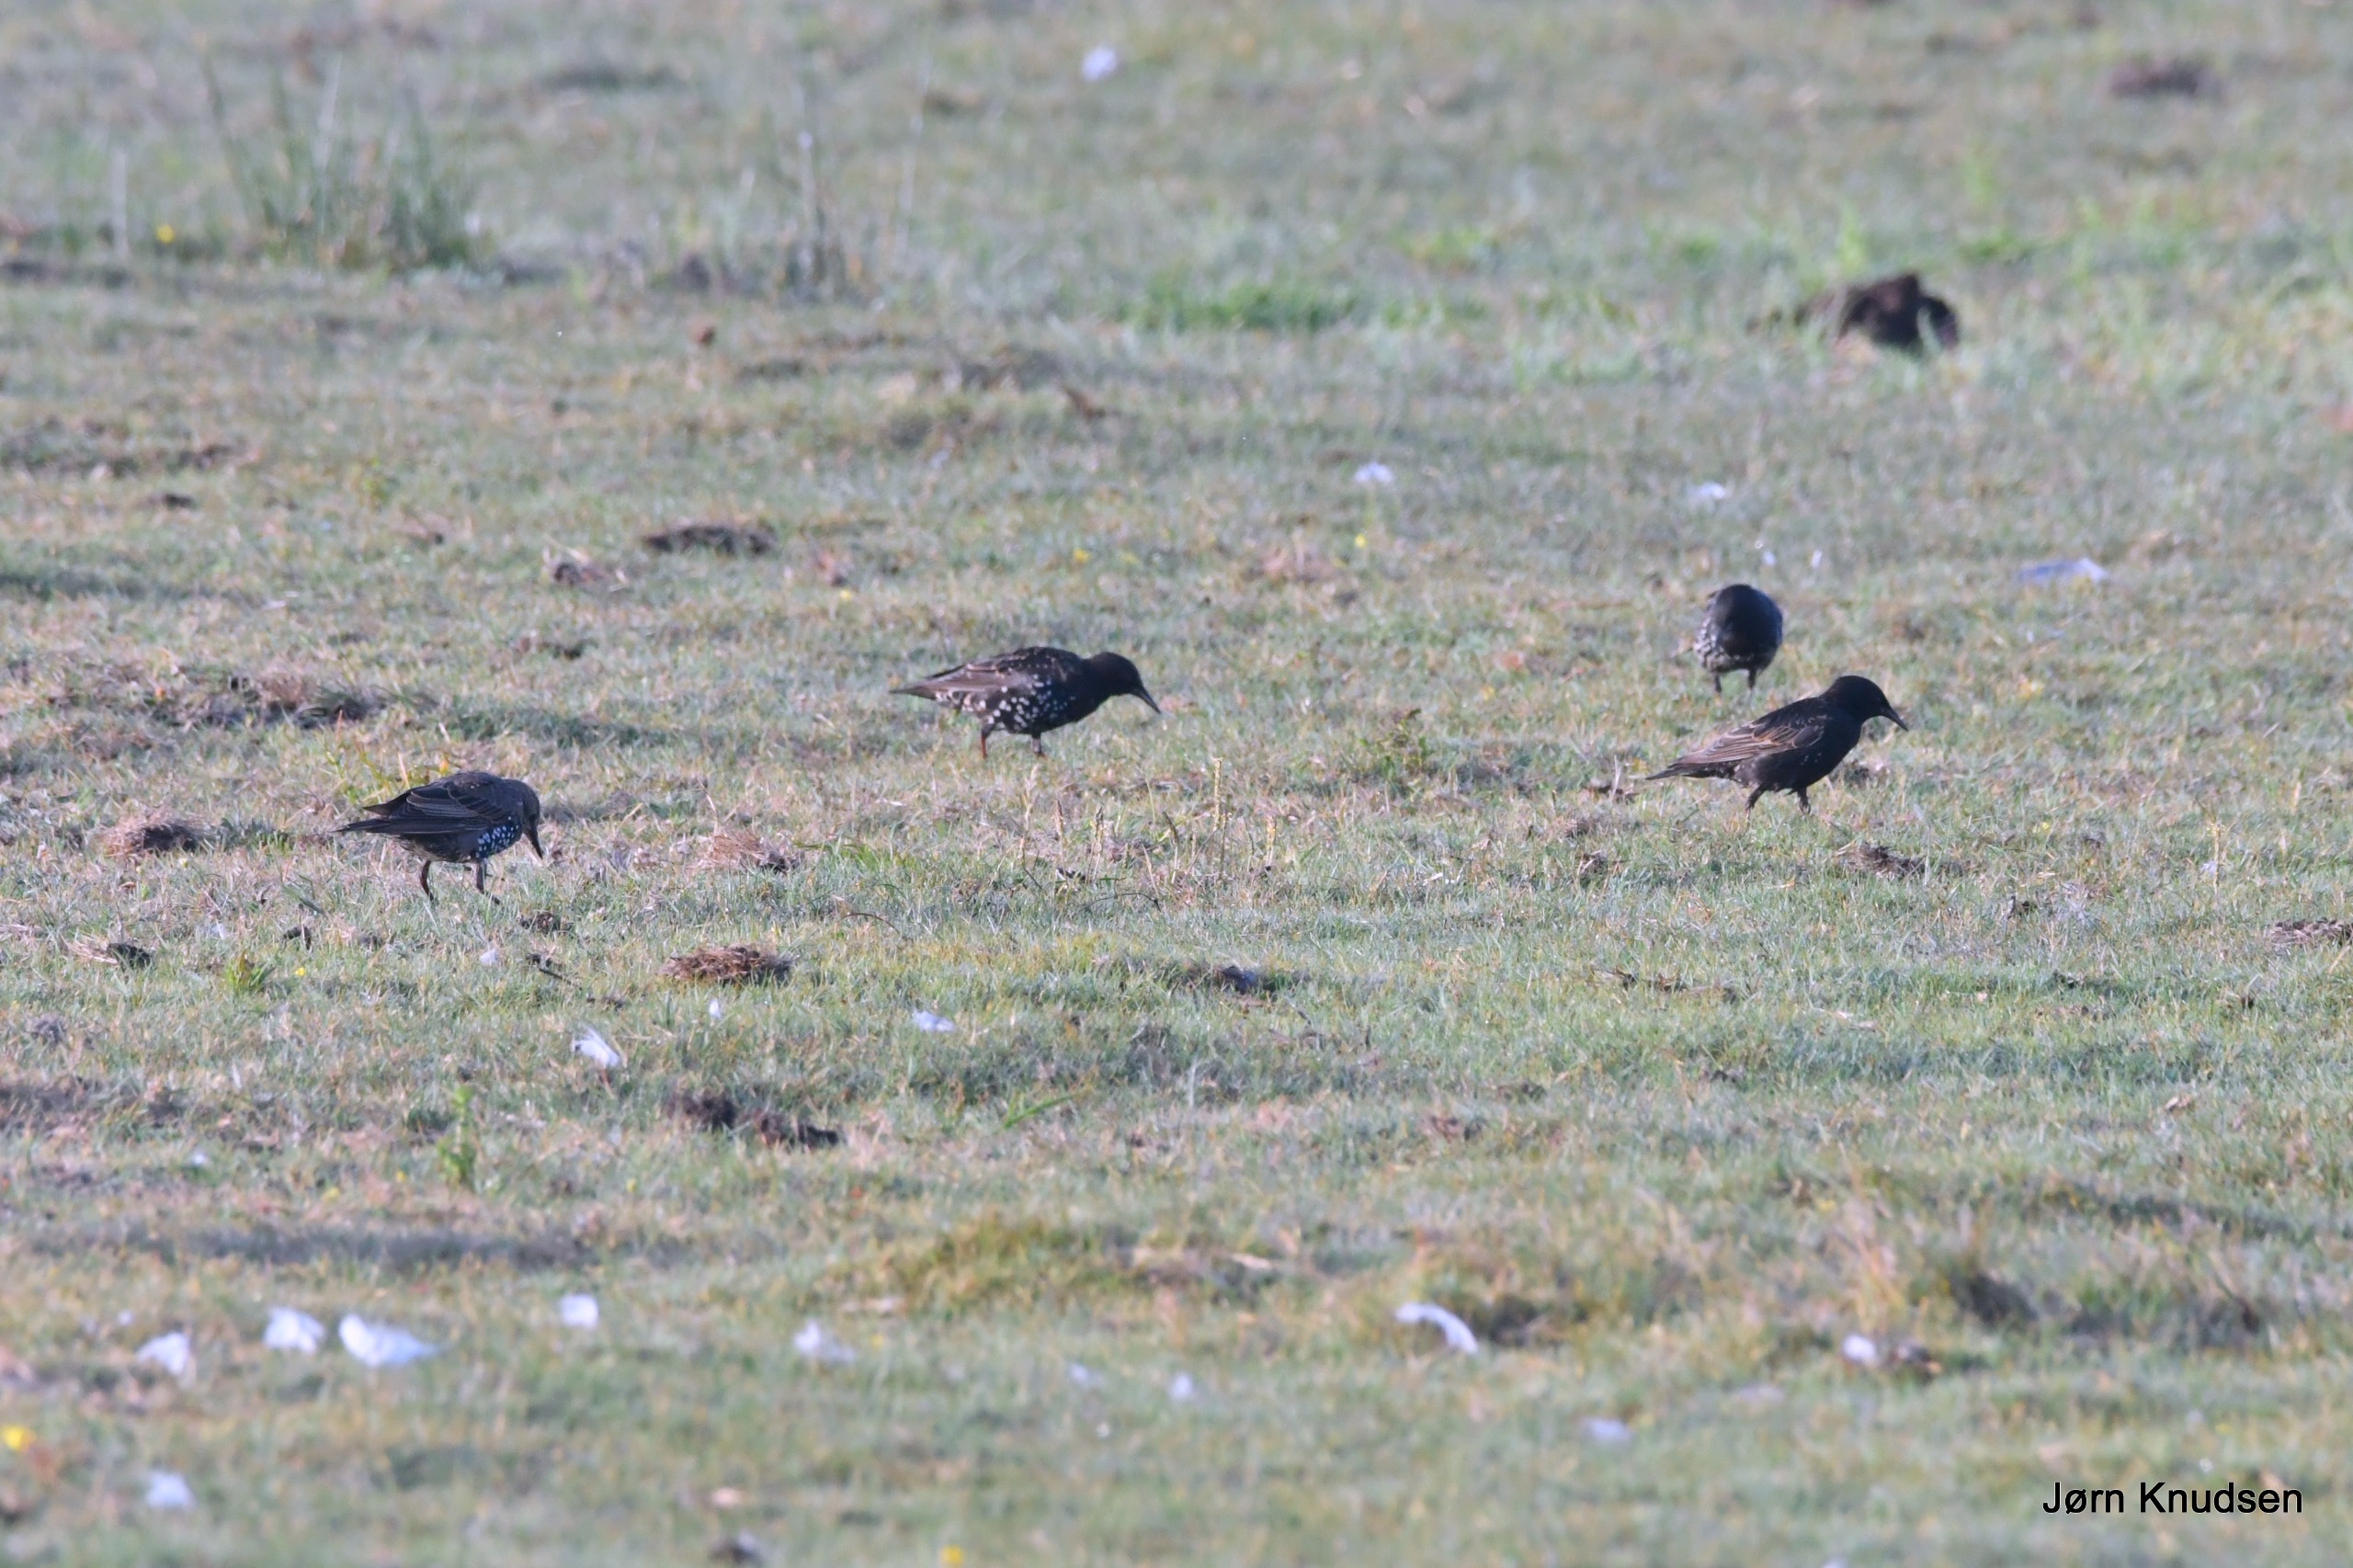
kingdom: Animalia
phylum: Chordata
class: Aves
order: Passeriformes
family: Sturnidae
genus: Sturnus
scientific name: Sturnus vulgaris
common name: Stær
